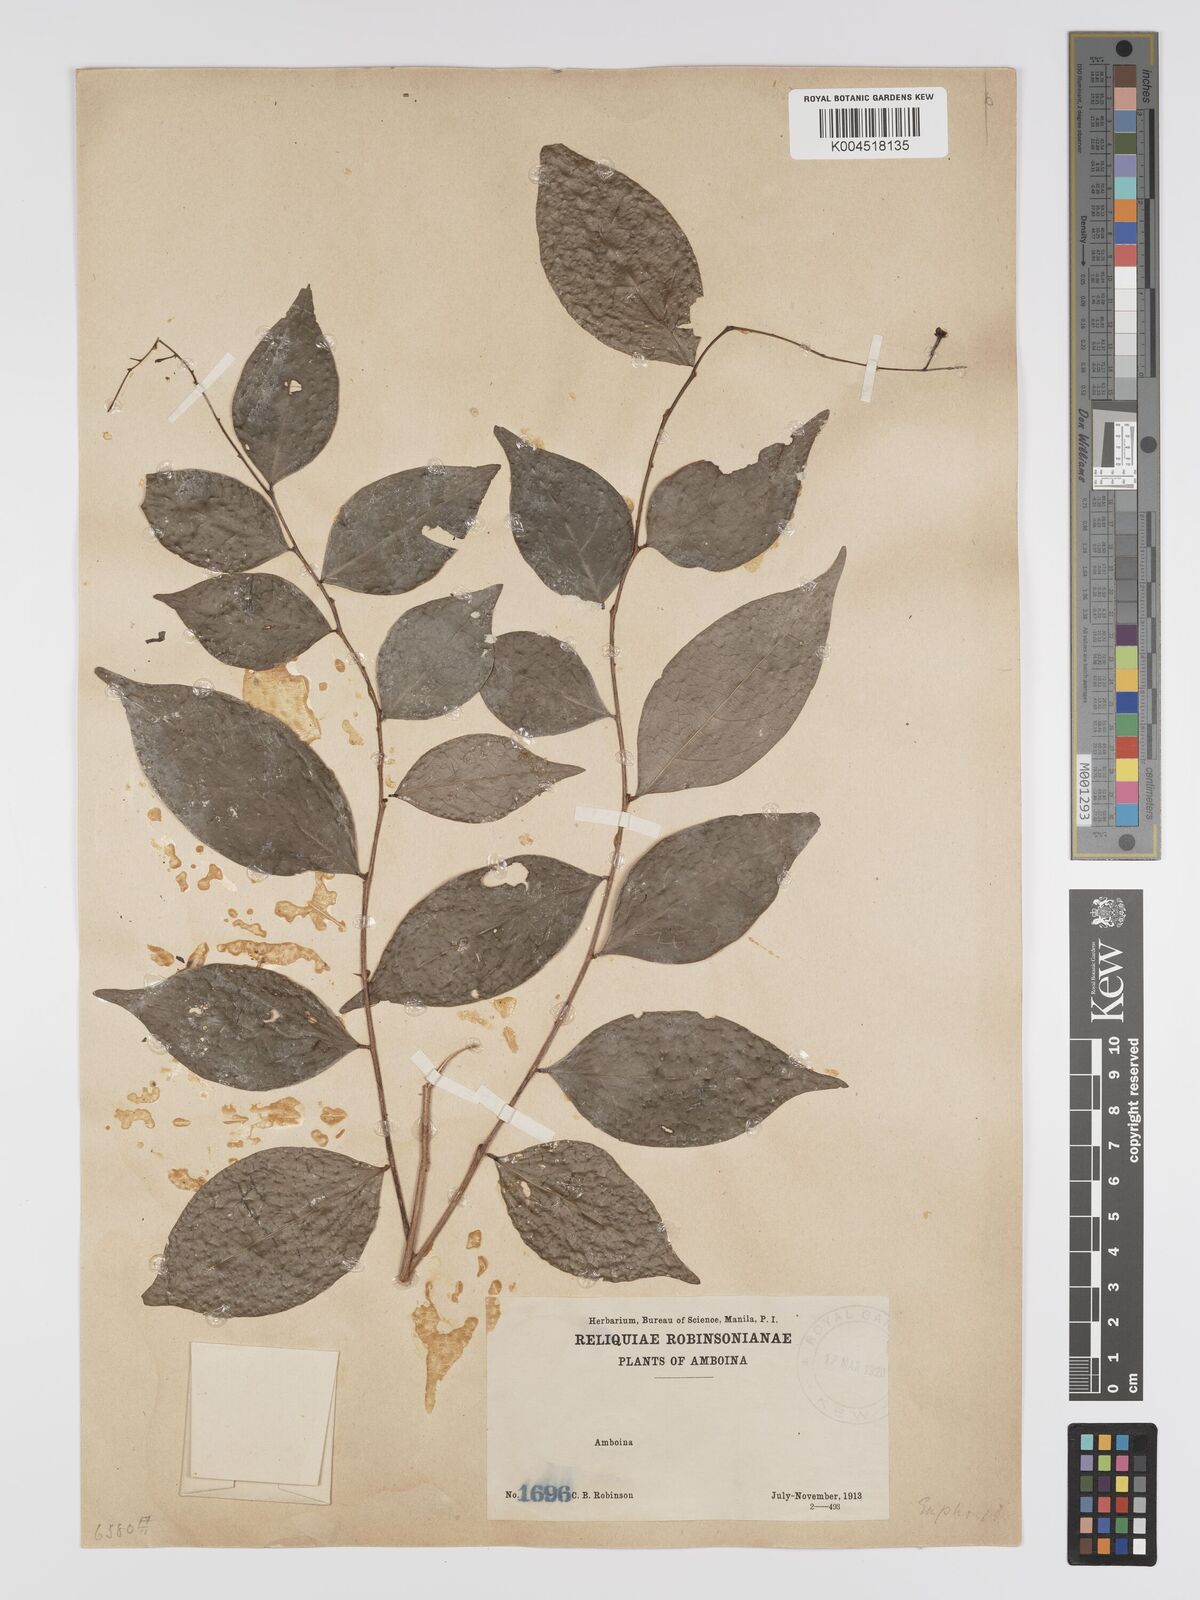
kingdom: Plantae
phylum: Tracheophyta
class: Magnoliopsida
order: Malpighiales
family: Phyllanthaceae
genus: Phyllanthus
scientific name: Phyllanthus
